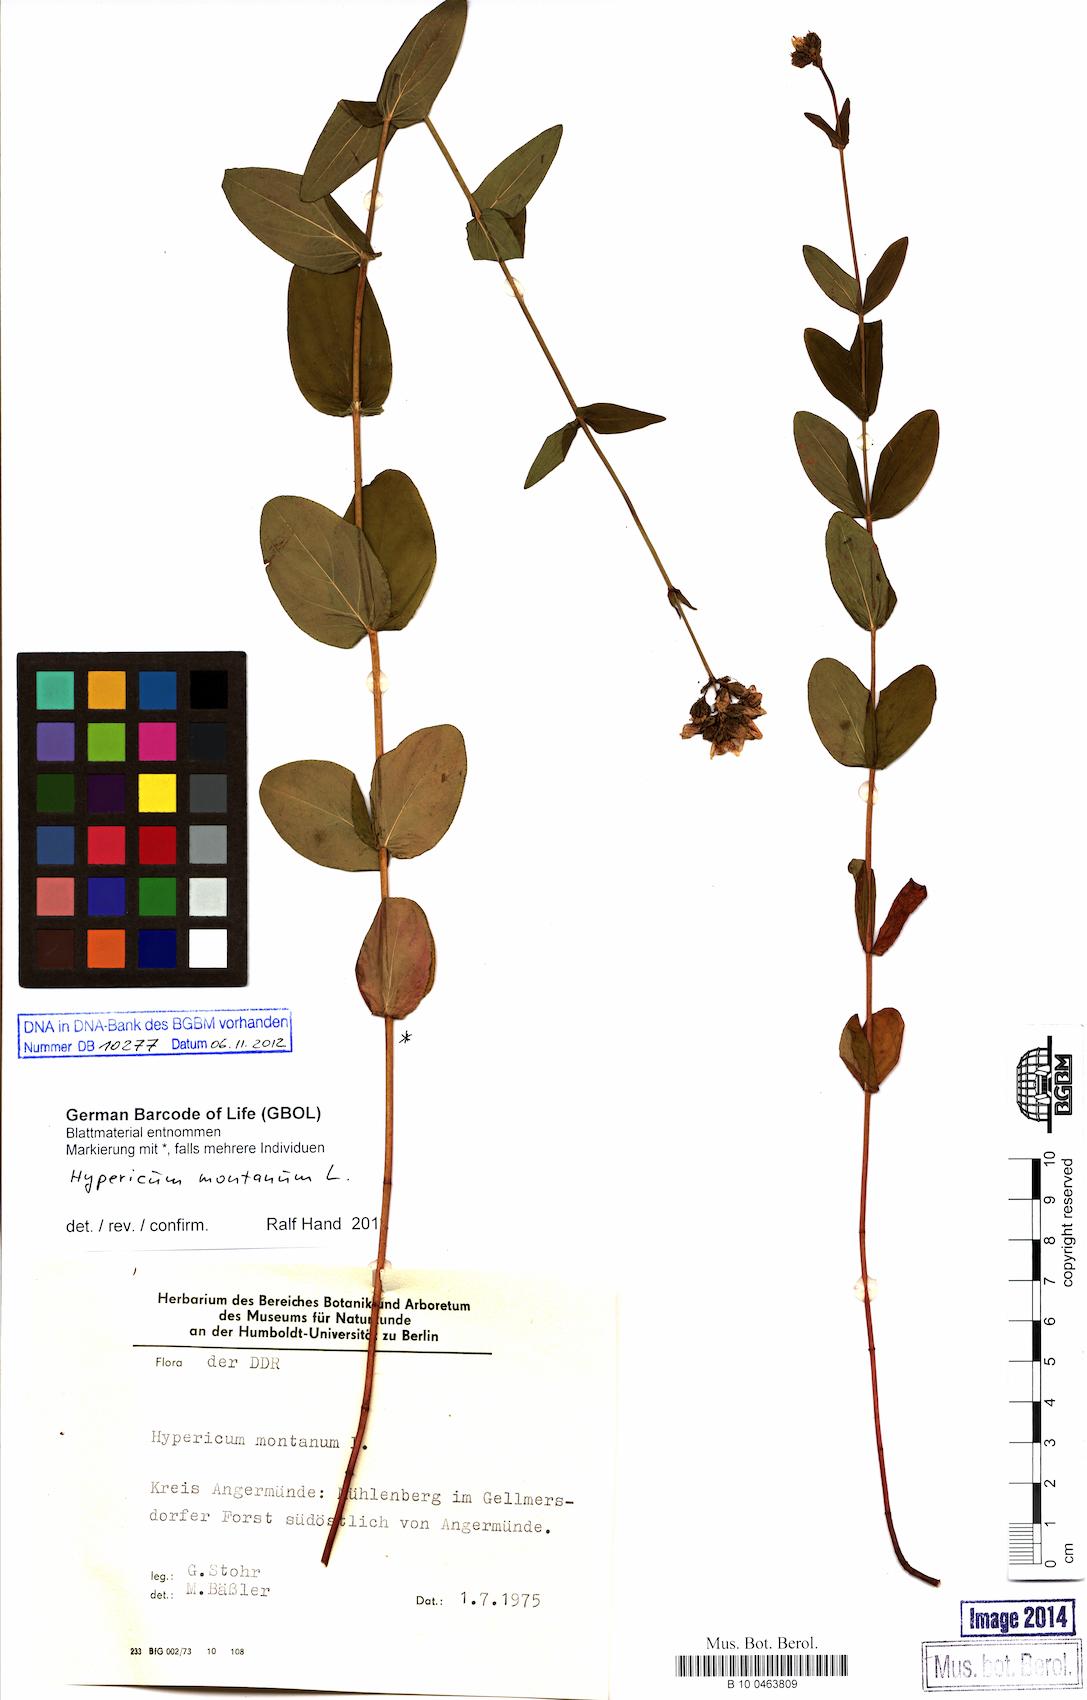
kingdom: Plantae
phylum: Tracheophyta
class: Magnoliopsida
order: Malpighiales
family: Hypericaceae
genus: Hypericum
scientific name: Hypericum montanum
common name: Pale st. john's-wort
